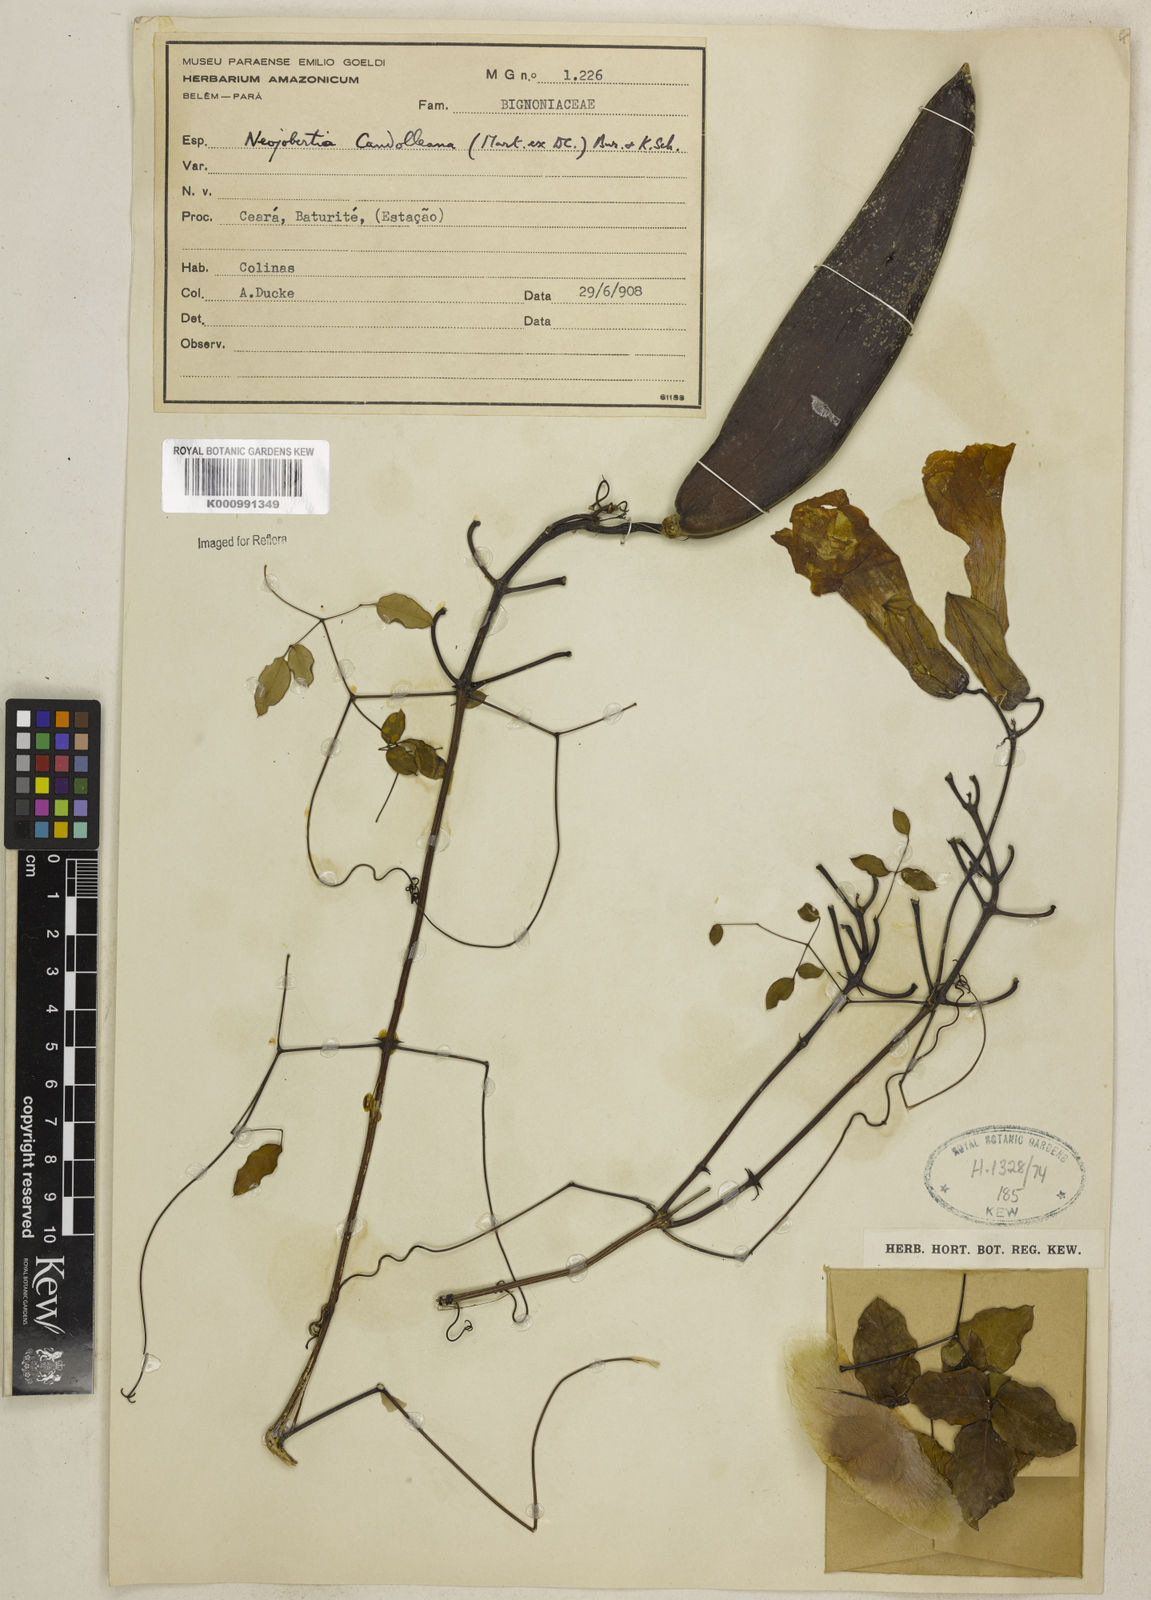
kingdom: Plantae
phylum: Tracheophyta
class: Magnoliopsida
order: Lamiales
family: Bignoniaceae
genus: Adenocalymma
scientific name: Adenocalymma candolleanum
